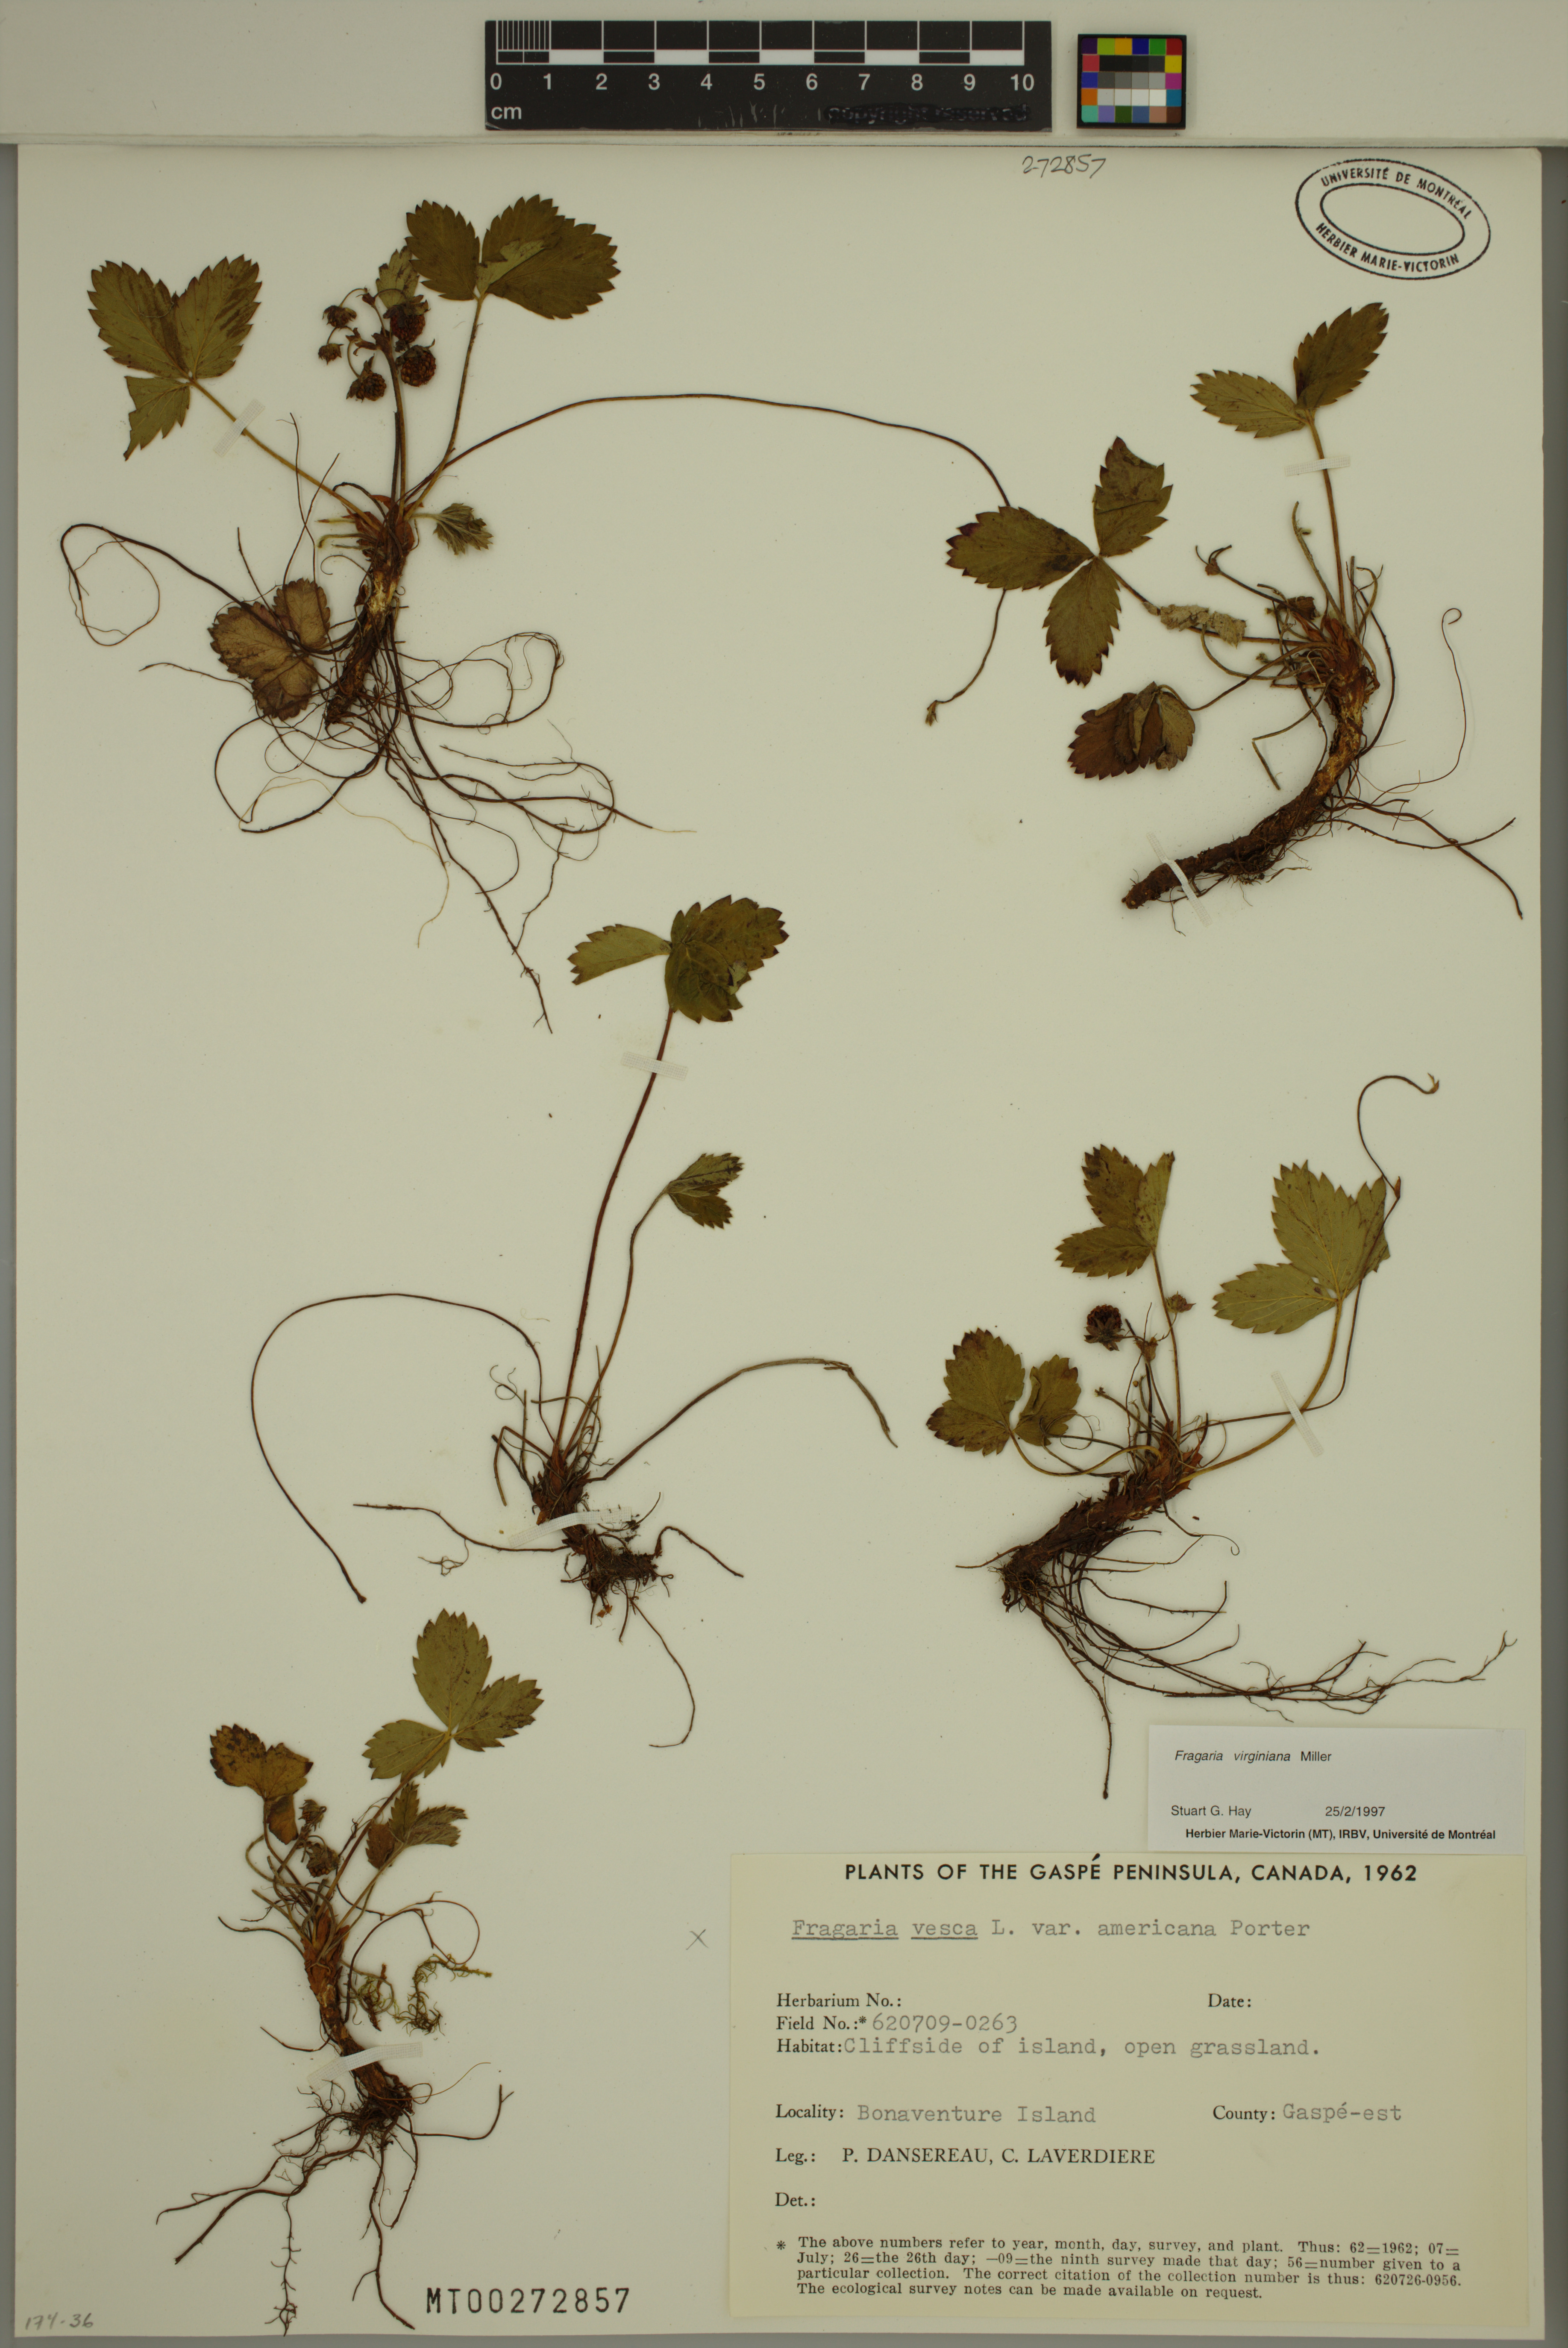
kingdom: Plantae
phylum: Tracheophyta
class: Magnoliopsida
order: Rosales
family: Rosaceae
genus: Fragaria
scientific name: Fragaria virginiana
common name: Thickleaved wild strawberry
